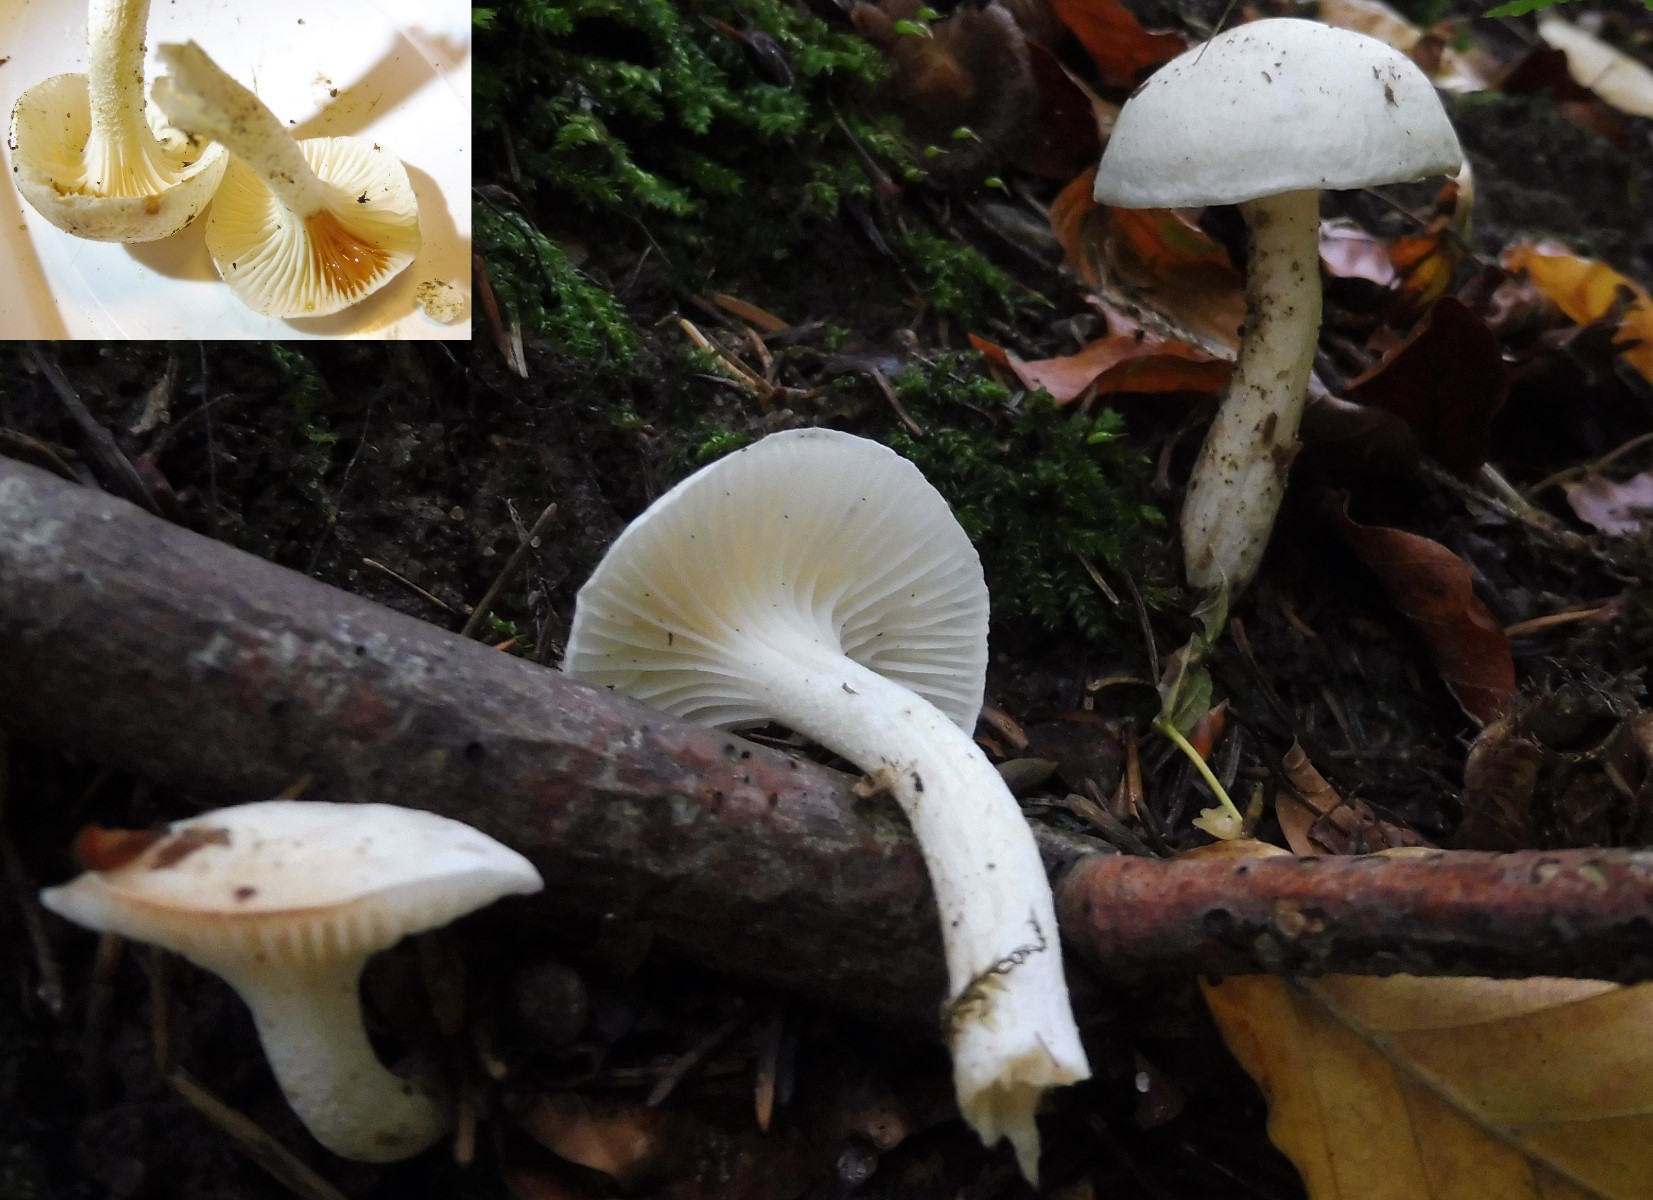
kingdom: Fungi
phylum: Basidiomycota
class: Agaricomycetes
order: Agaricales
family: Hygrophoraceae
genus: Hygrophorus
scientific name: Hygrophorus discoxanthus
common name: ildelugtende sneglehat
